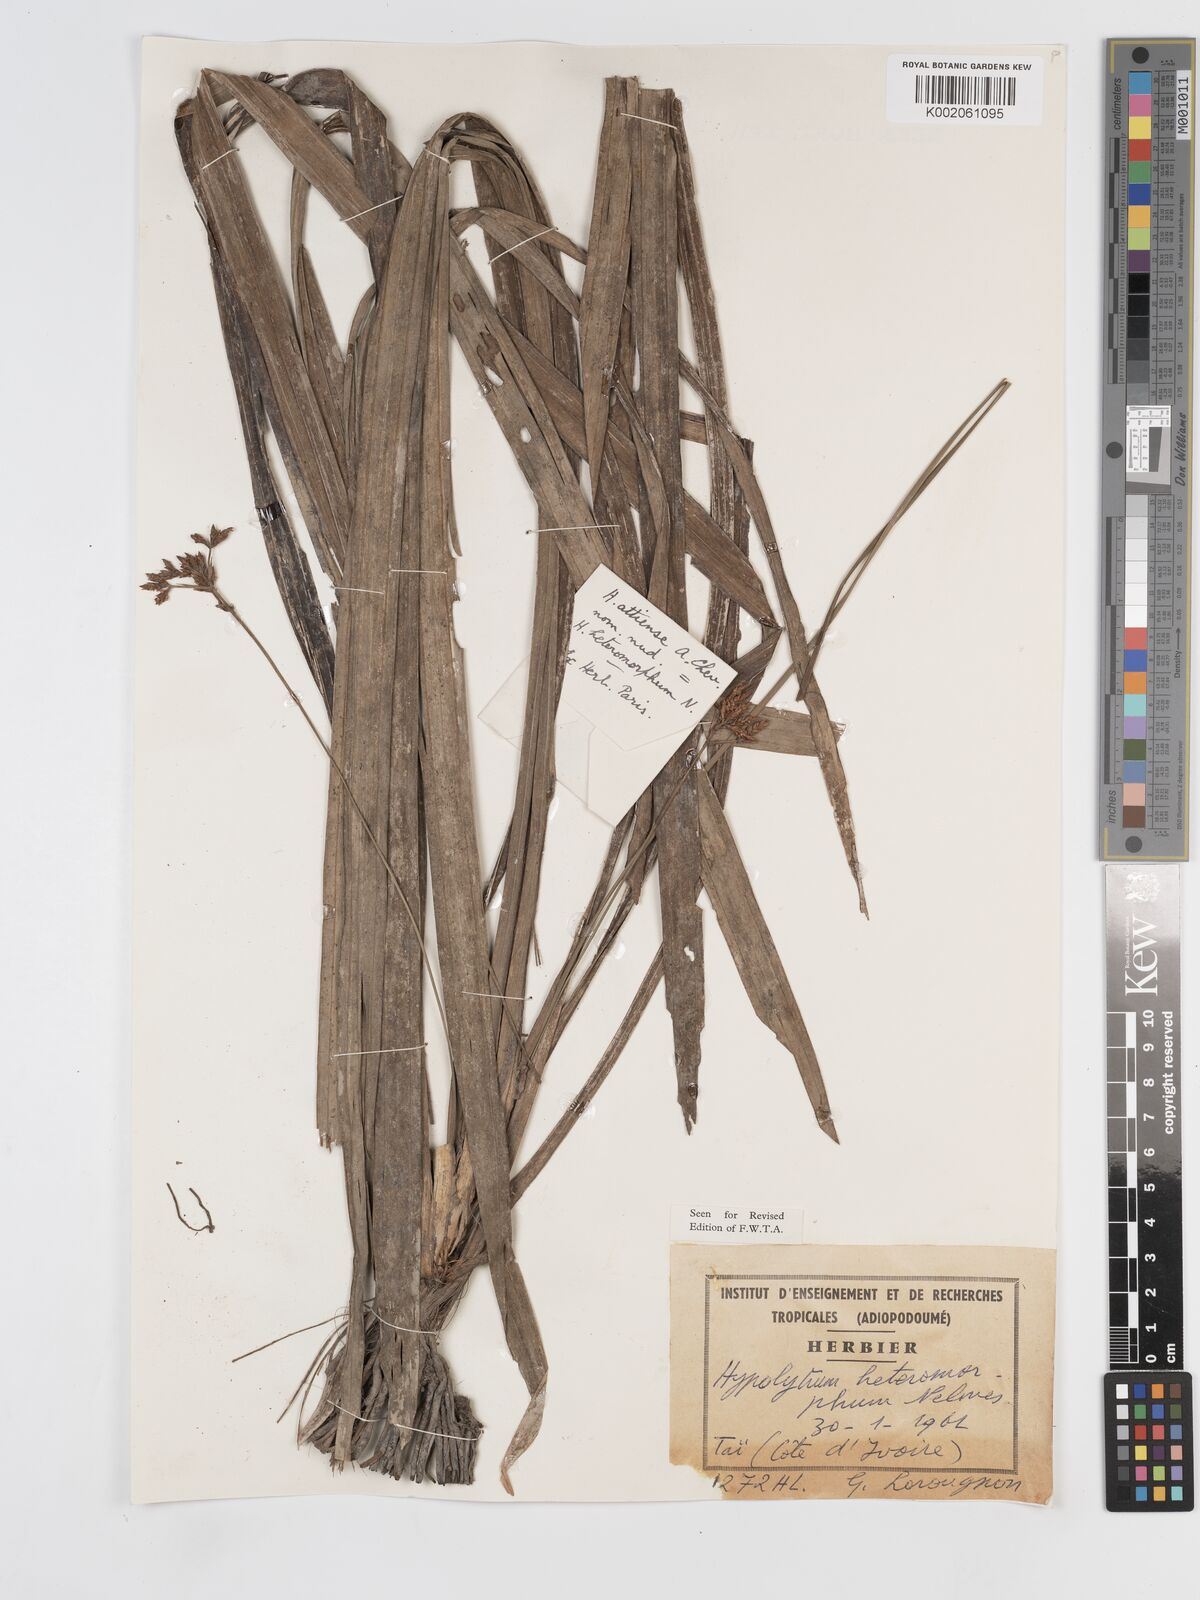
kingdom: Plantae
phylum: Tracheophyta
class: Liliopsida
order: Poales
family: Cyperaceae
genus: Hypolytrum
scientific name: Hypolytrum heteromorphum
